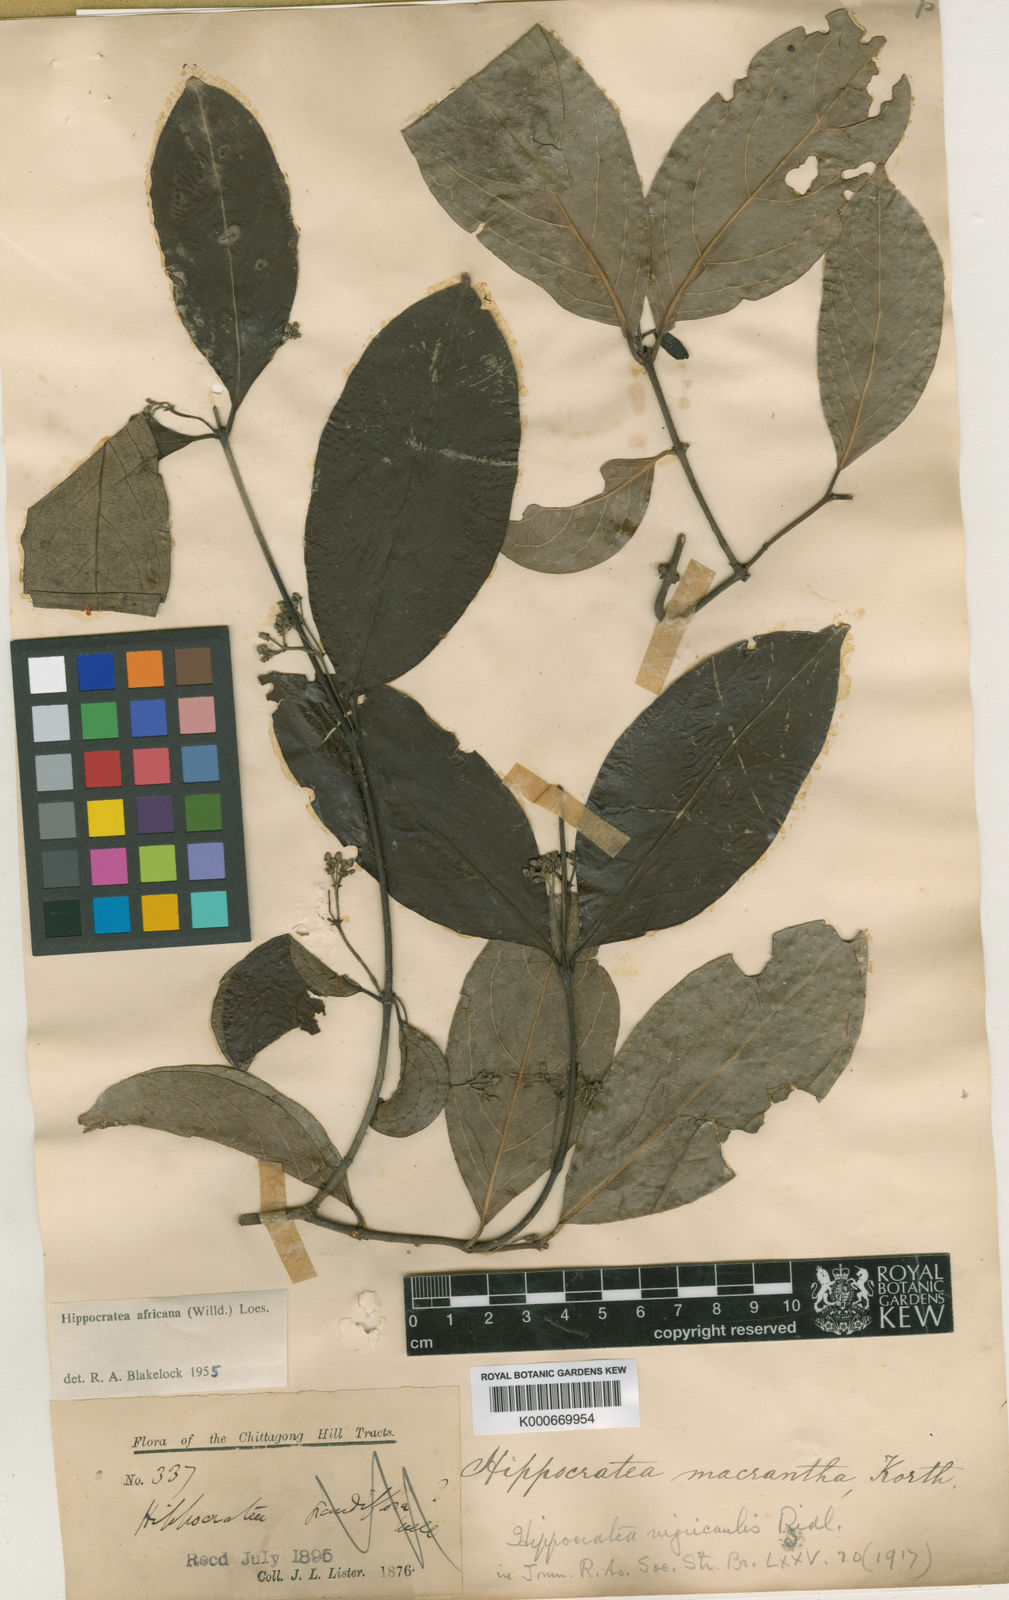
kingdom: Plantae
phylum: Tracheophyta
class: Magnoliopsida
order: Celastrales
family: Celastraceae
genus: Loeseneriella
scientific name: Loeseneriella
